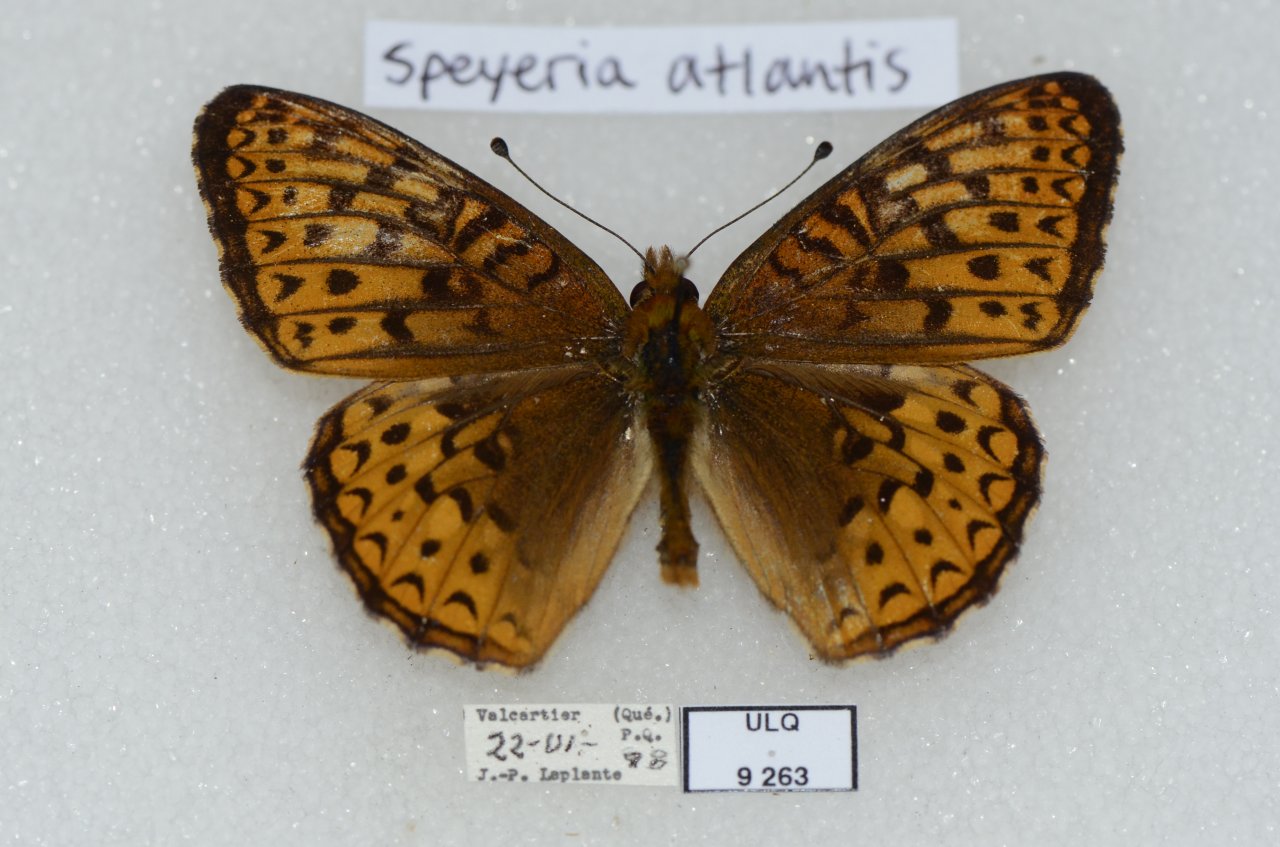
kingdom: Animalia
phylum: Arthropoda
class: Insecta
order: Lepidoptera
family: Nymphalidae
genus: Speyeria
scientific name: Speyeria atlantis
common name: Atlantis Fritillary
